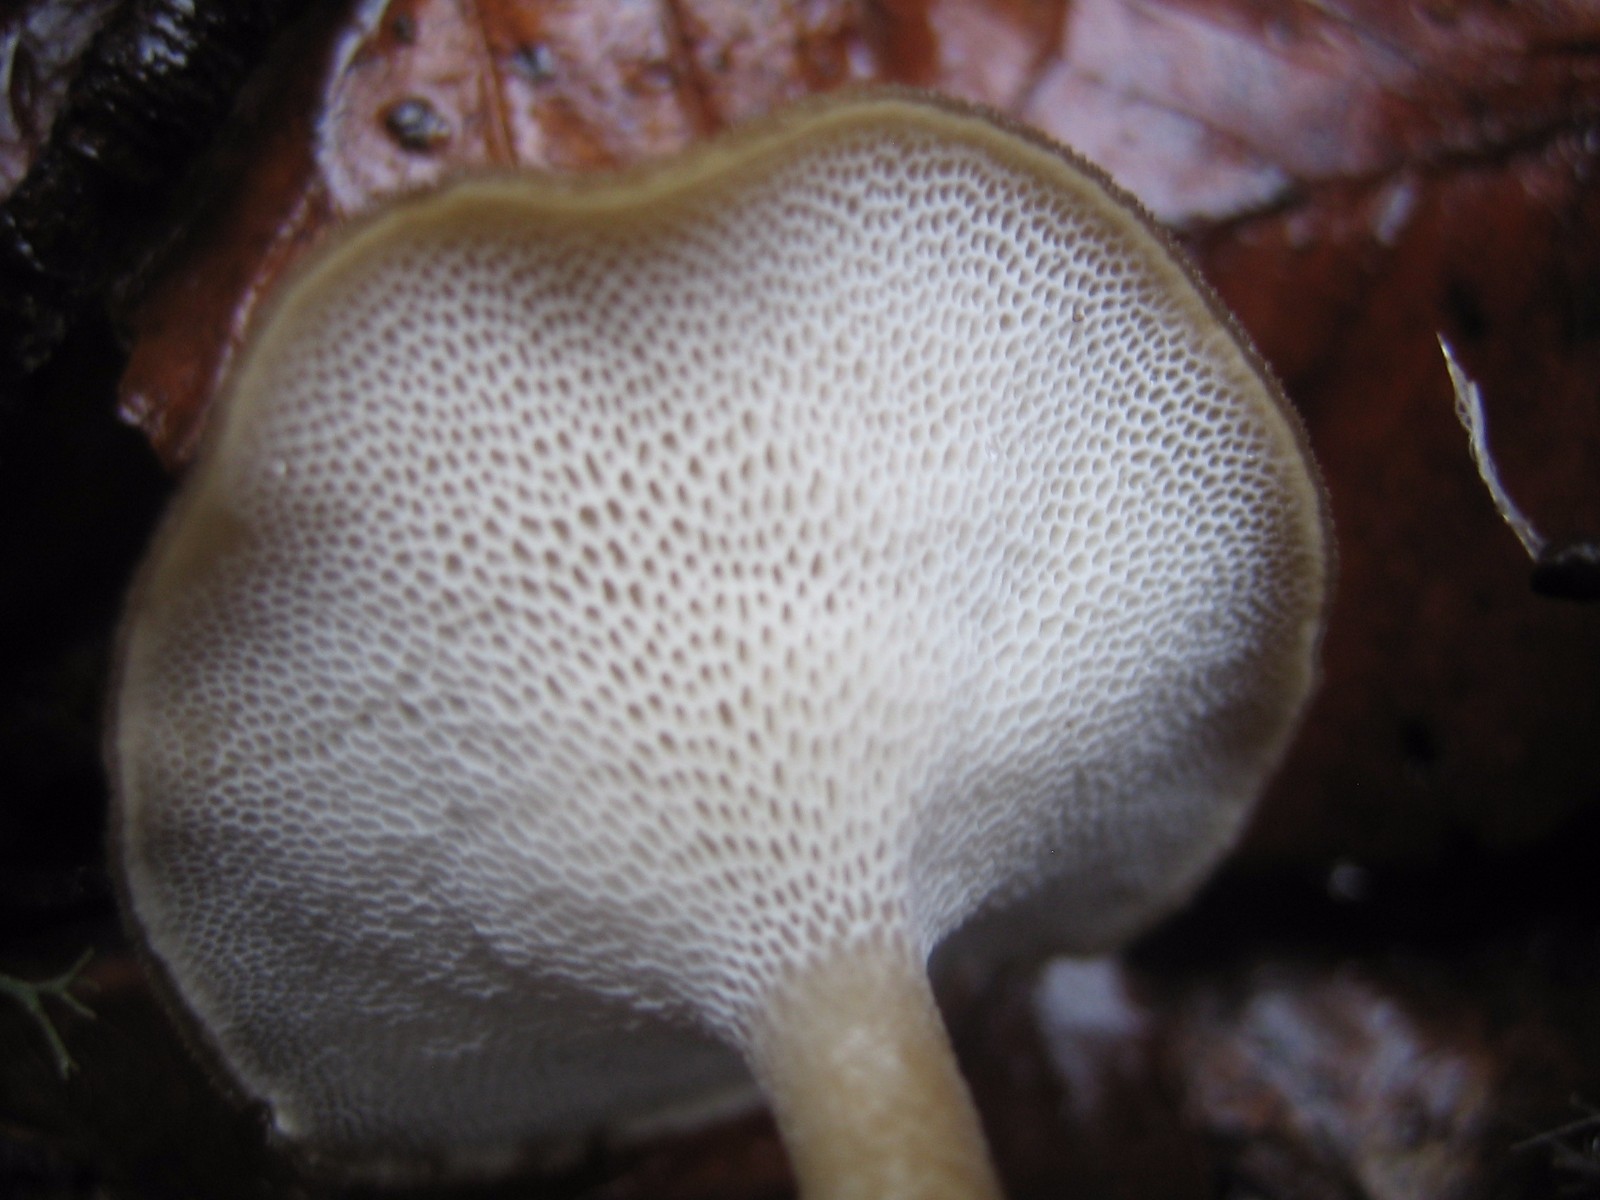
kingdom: Fungi
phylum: Basidiomycota
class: Agaricomycetes
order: Polyporales
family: Polyporaceae
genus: Lentinus
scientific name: Lentinus brumalis
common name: vinter-stilkporesvamp
